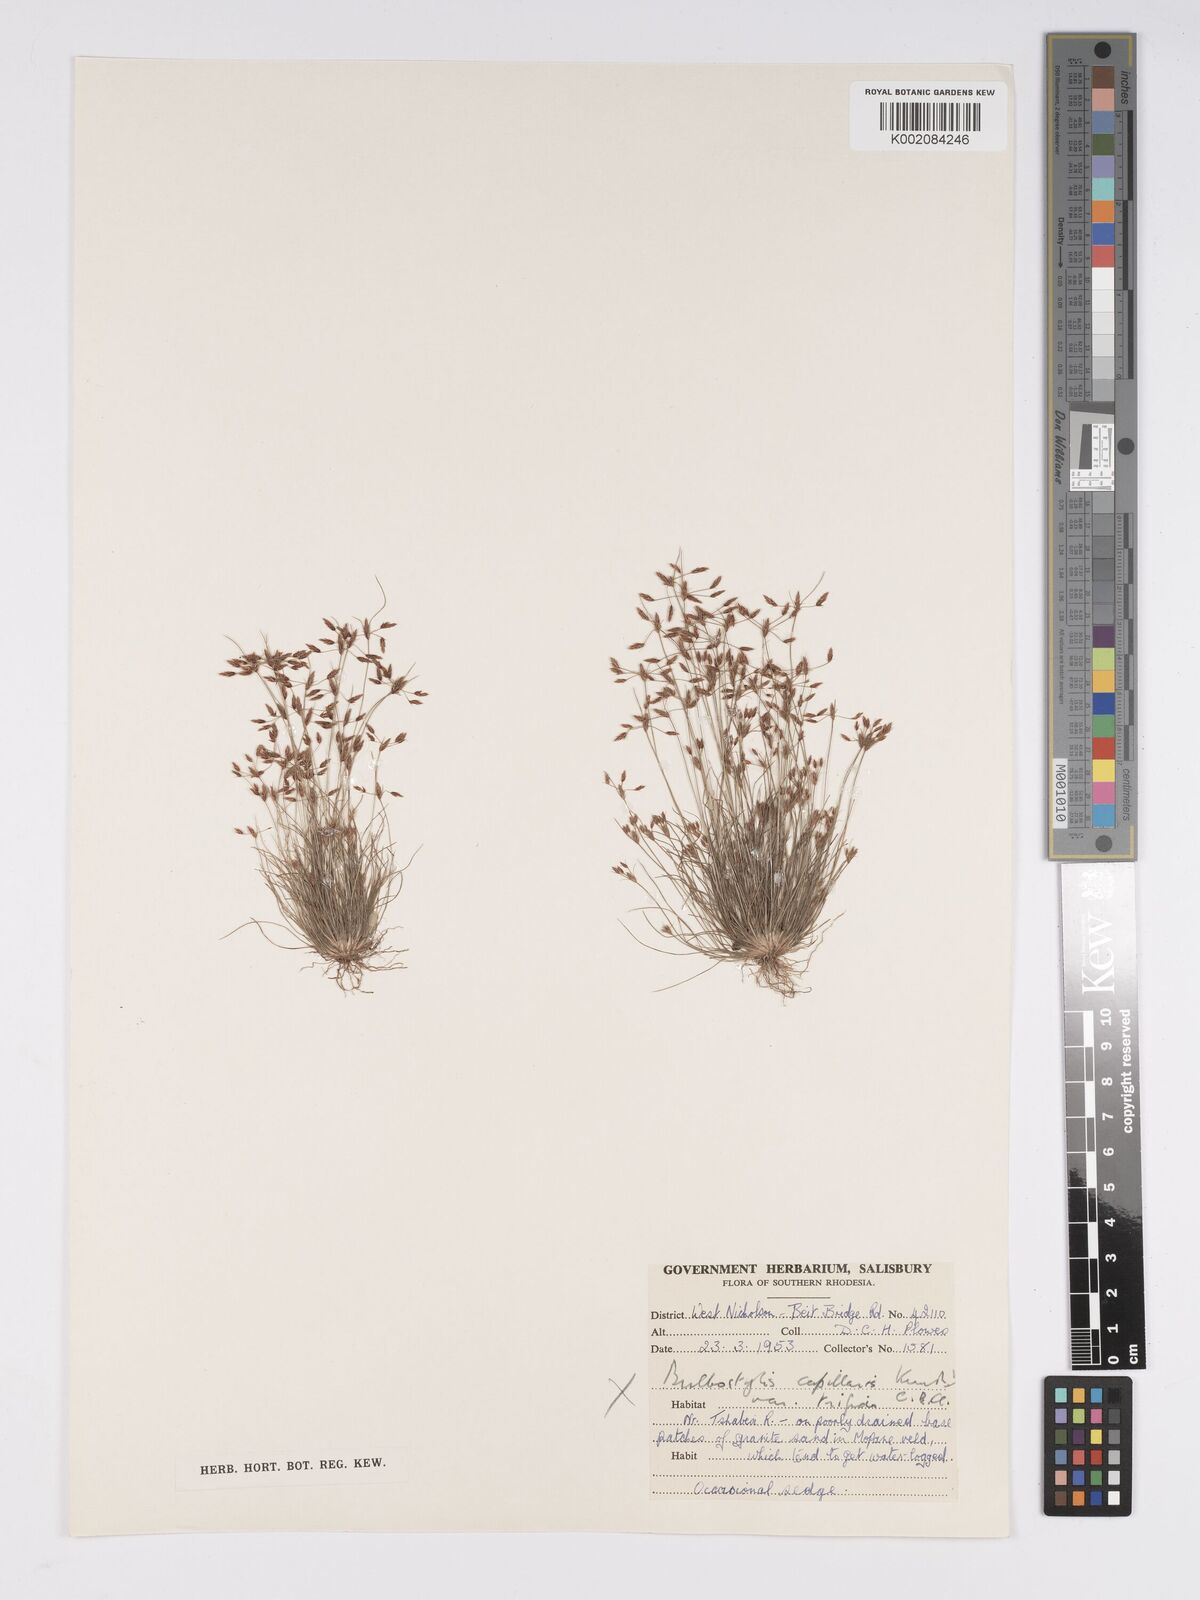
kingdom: Plantae
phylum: Tracheophyta
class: Liliopsida
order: Poales
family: Cyperaceae
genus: Bulbostylis
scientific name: Bulbostylis
